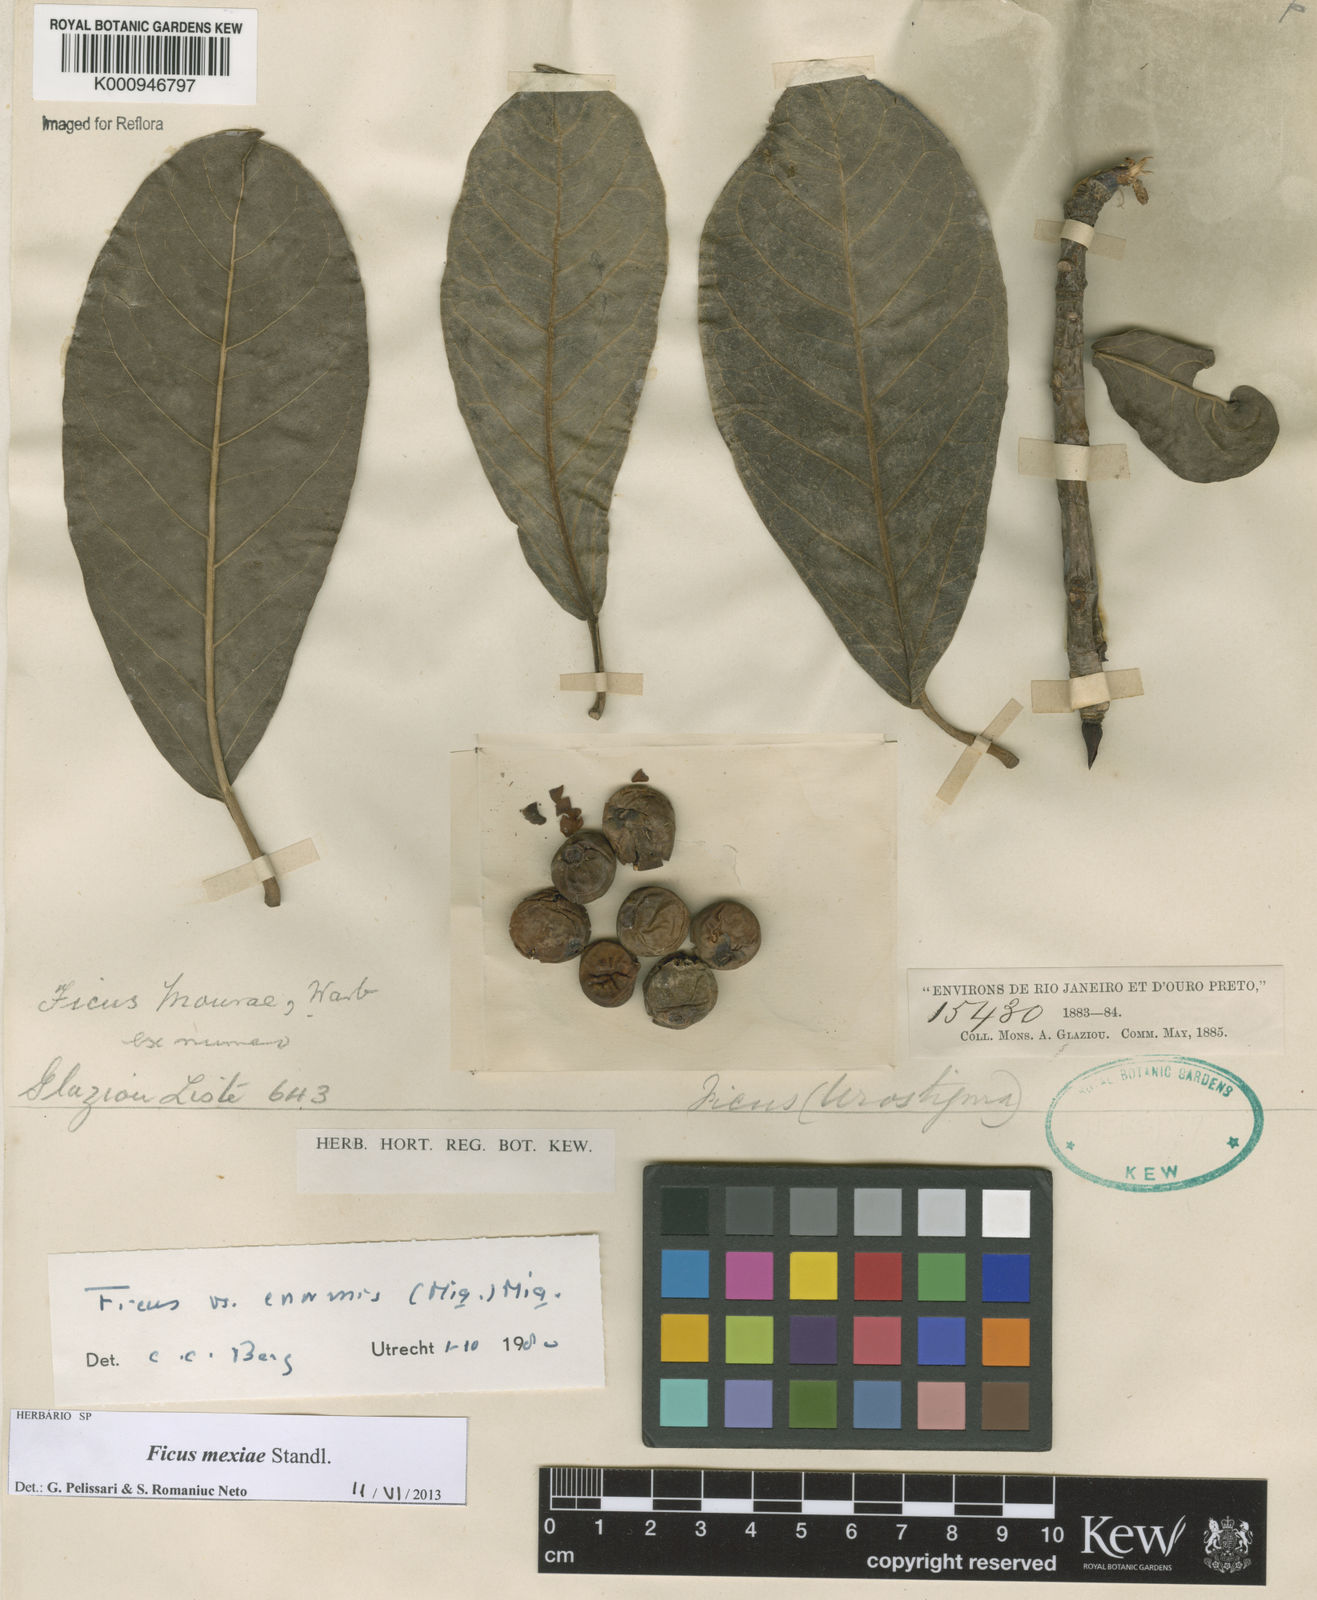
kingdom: Plantae
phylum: Tracheophyta
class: Magnoliopsida
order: Rosales
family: Moraceae
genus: Ficus
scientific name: Ficus mexiae
